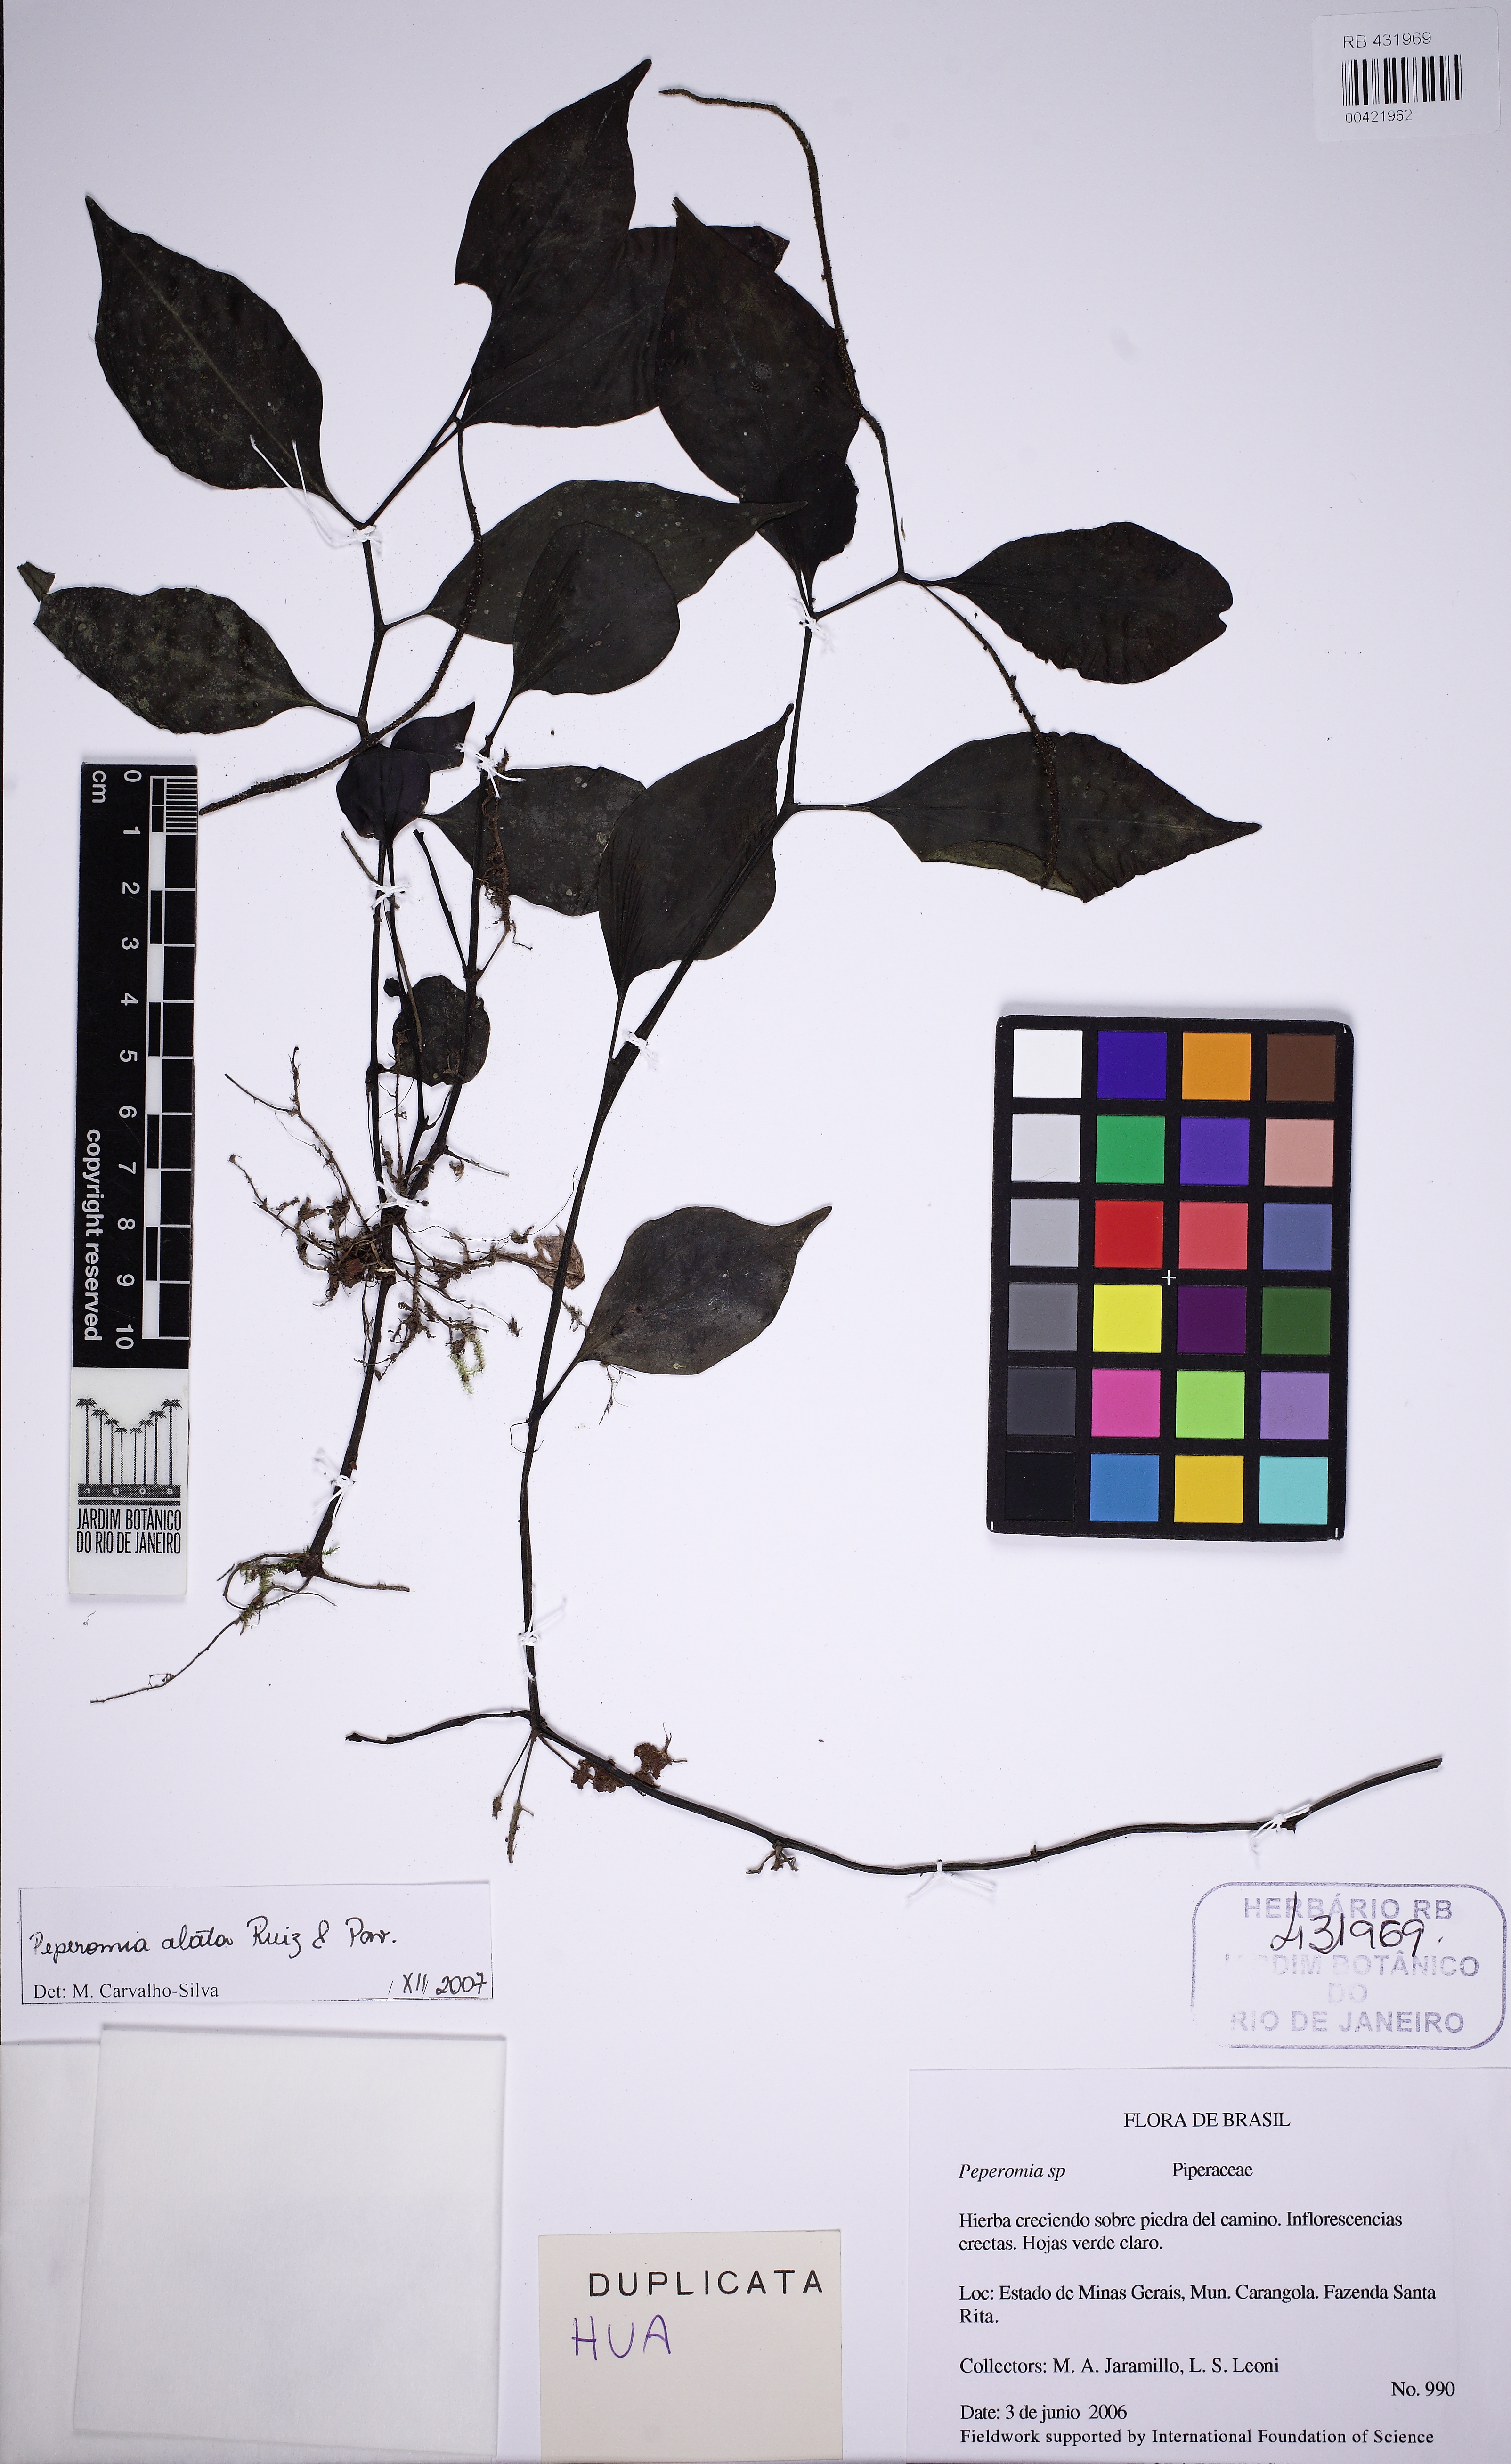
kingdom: Plantae
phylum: Tracheophyta
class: Magnoliopsida
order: Piperales
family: Piperaceae
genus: Peperomia
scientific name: Peperomia alata
